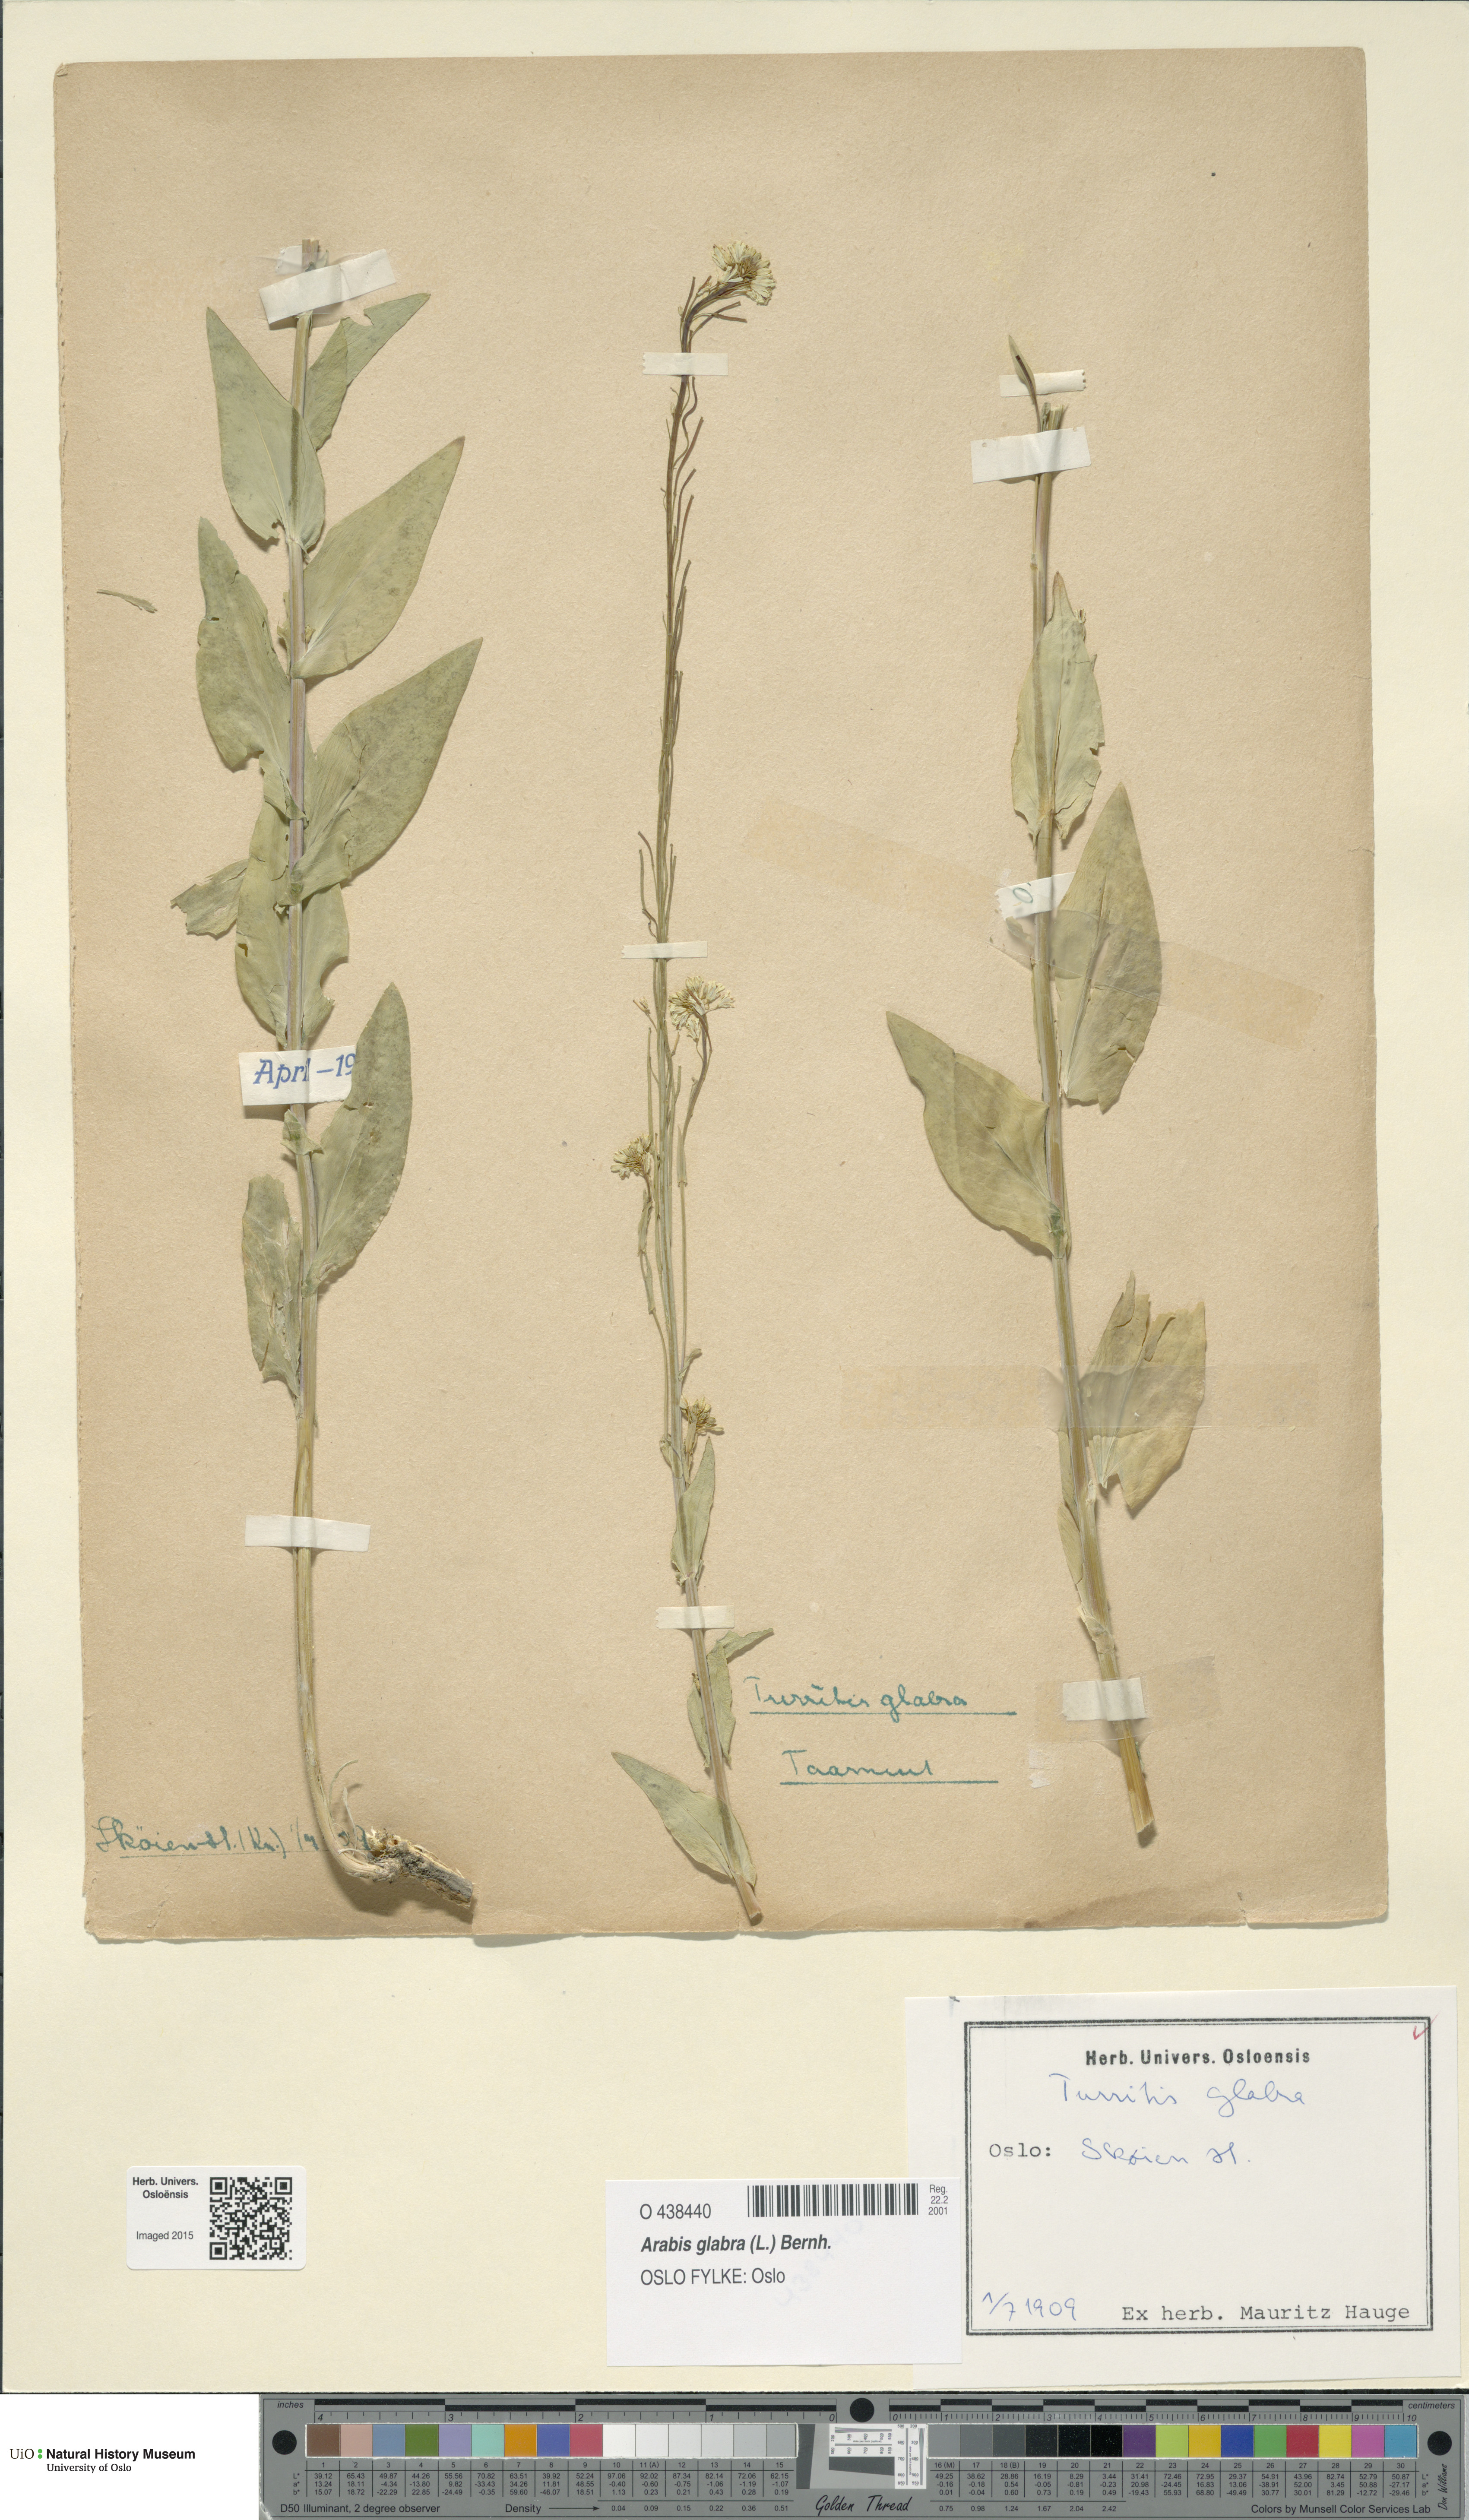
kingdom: Plantae
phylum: Tracheophyta
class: Magnoliopsida
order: Brassicales
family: Brassicaceae
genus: Turritis
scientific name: Turritis glabra
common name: Tower rockcress
